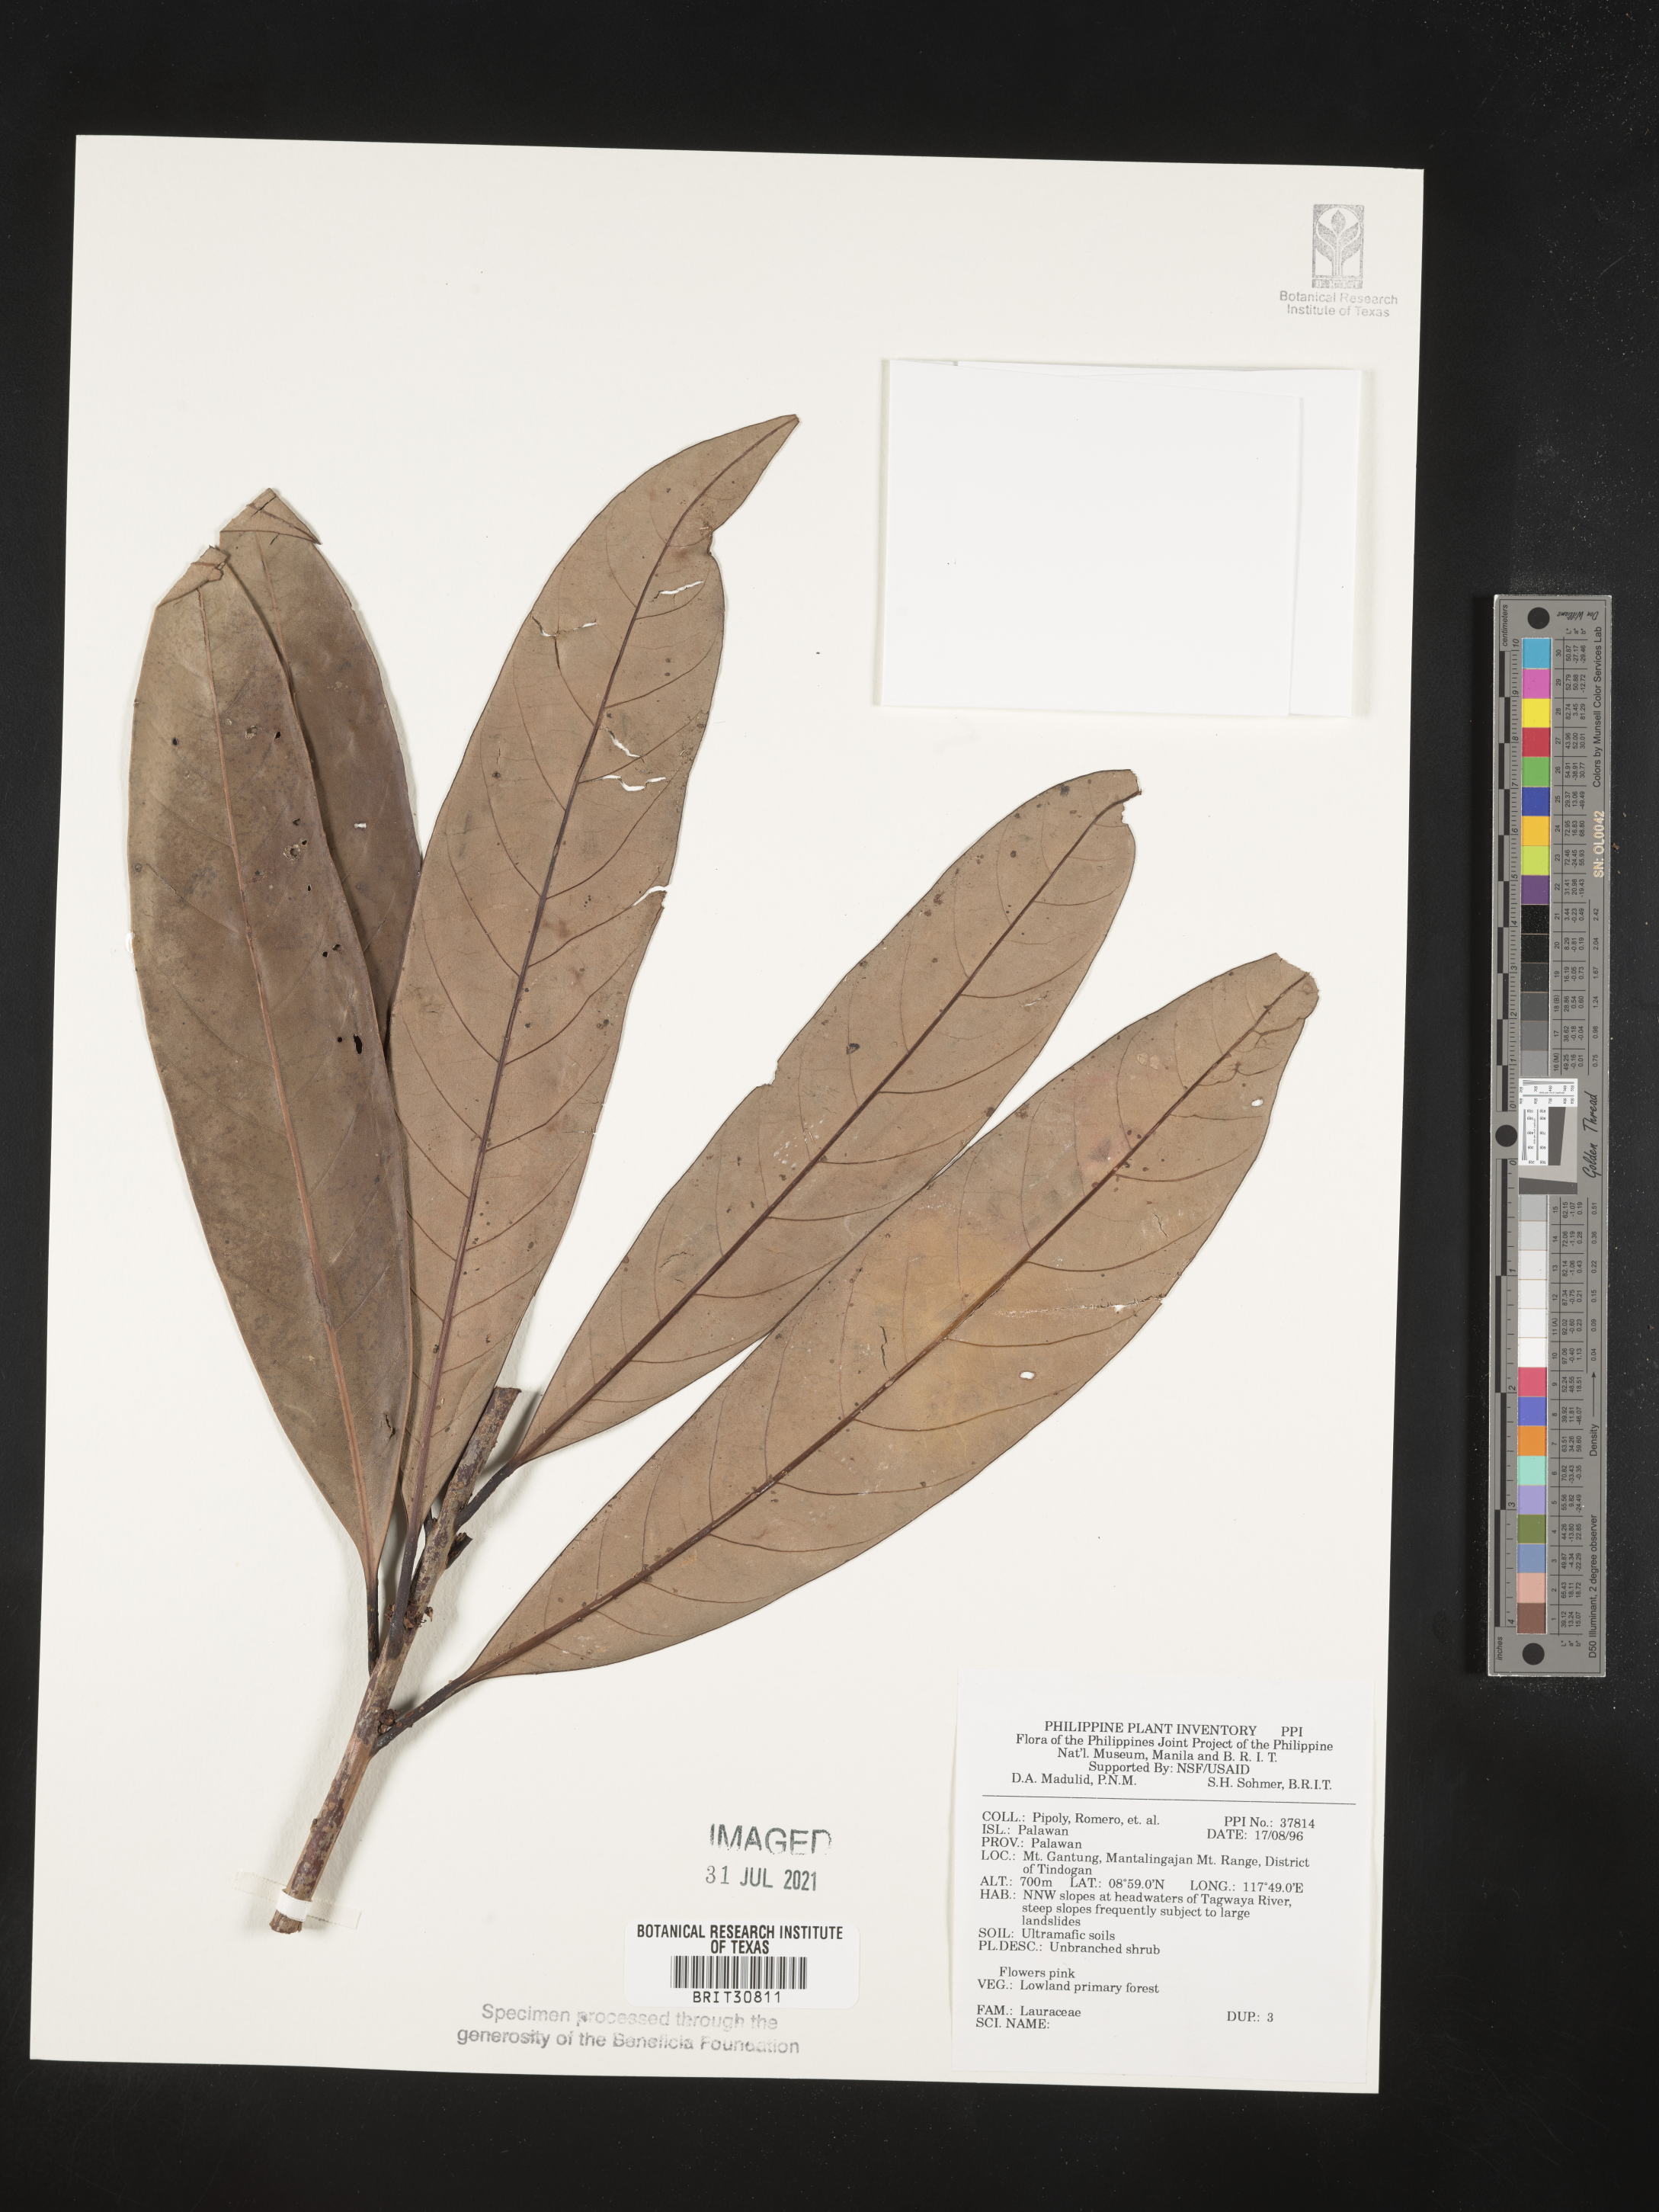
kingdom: Plantae
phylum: Tracheophyta
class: Magnoliopsida
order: Laurales
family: Lauraceae
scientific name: Lauraceae
